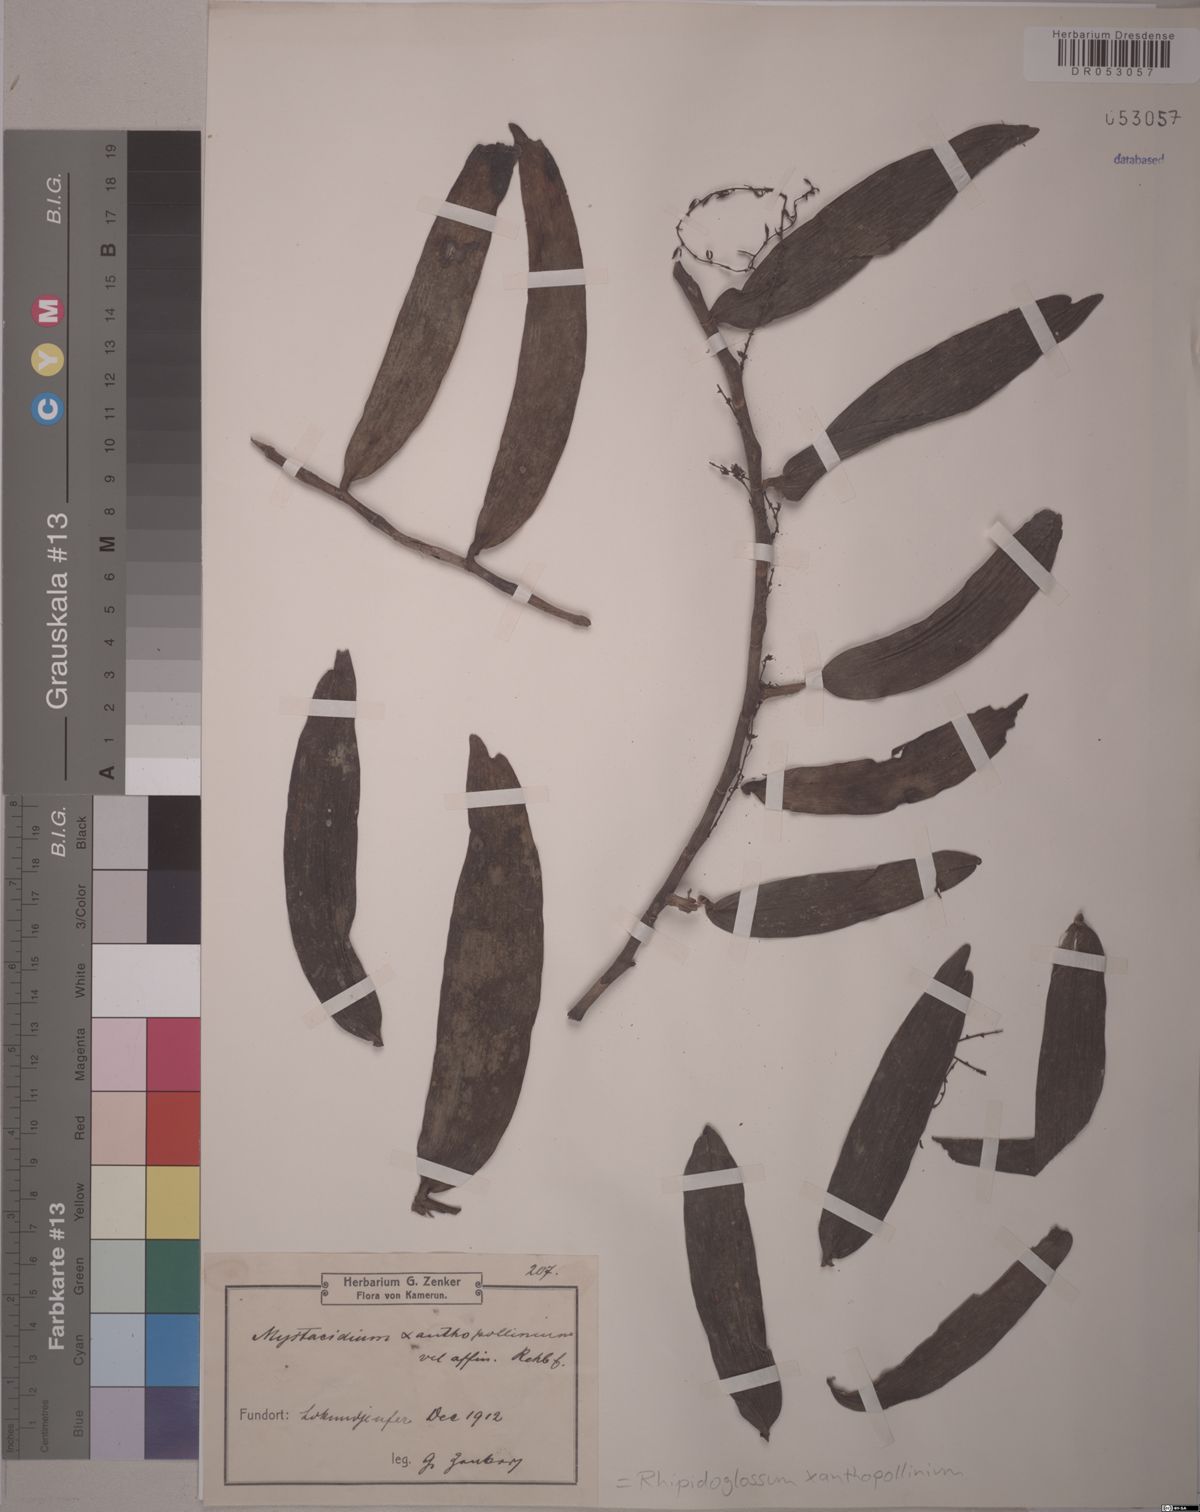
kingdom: Plantae
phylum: Tracheophyta
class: Liliopsida
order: Asparagales
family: Orchidaceae
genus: Rhipidoglossum
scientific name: Rhipidoglossum xanthopollinium
